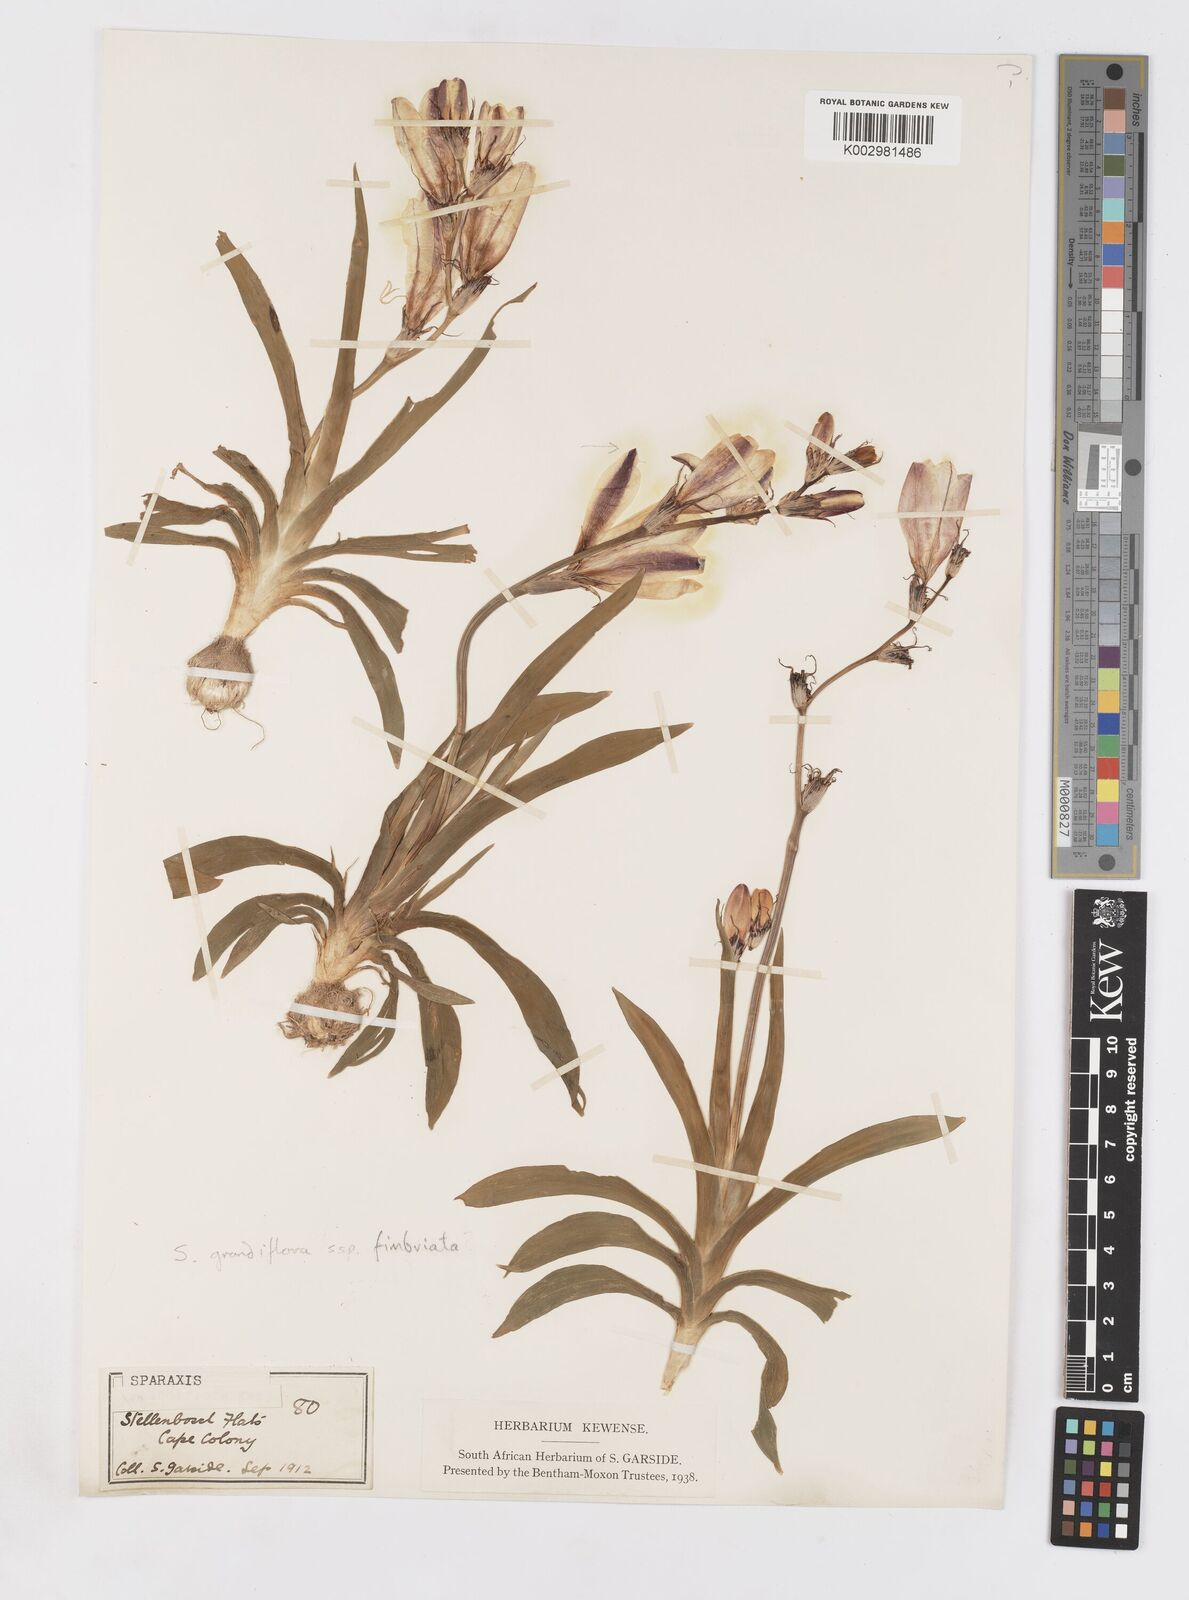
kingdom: Plantae
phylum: Tracheophyta
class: Liliopsida
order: Asparagales
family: Iridaceae
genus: Sparaxis
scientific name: Sparaxis grandiflora
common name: Plain harlequin-flower
